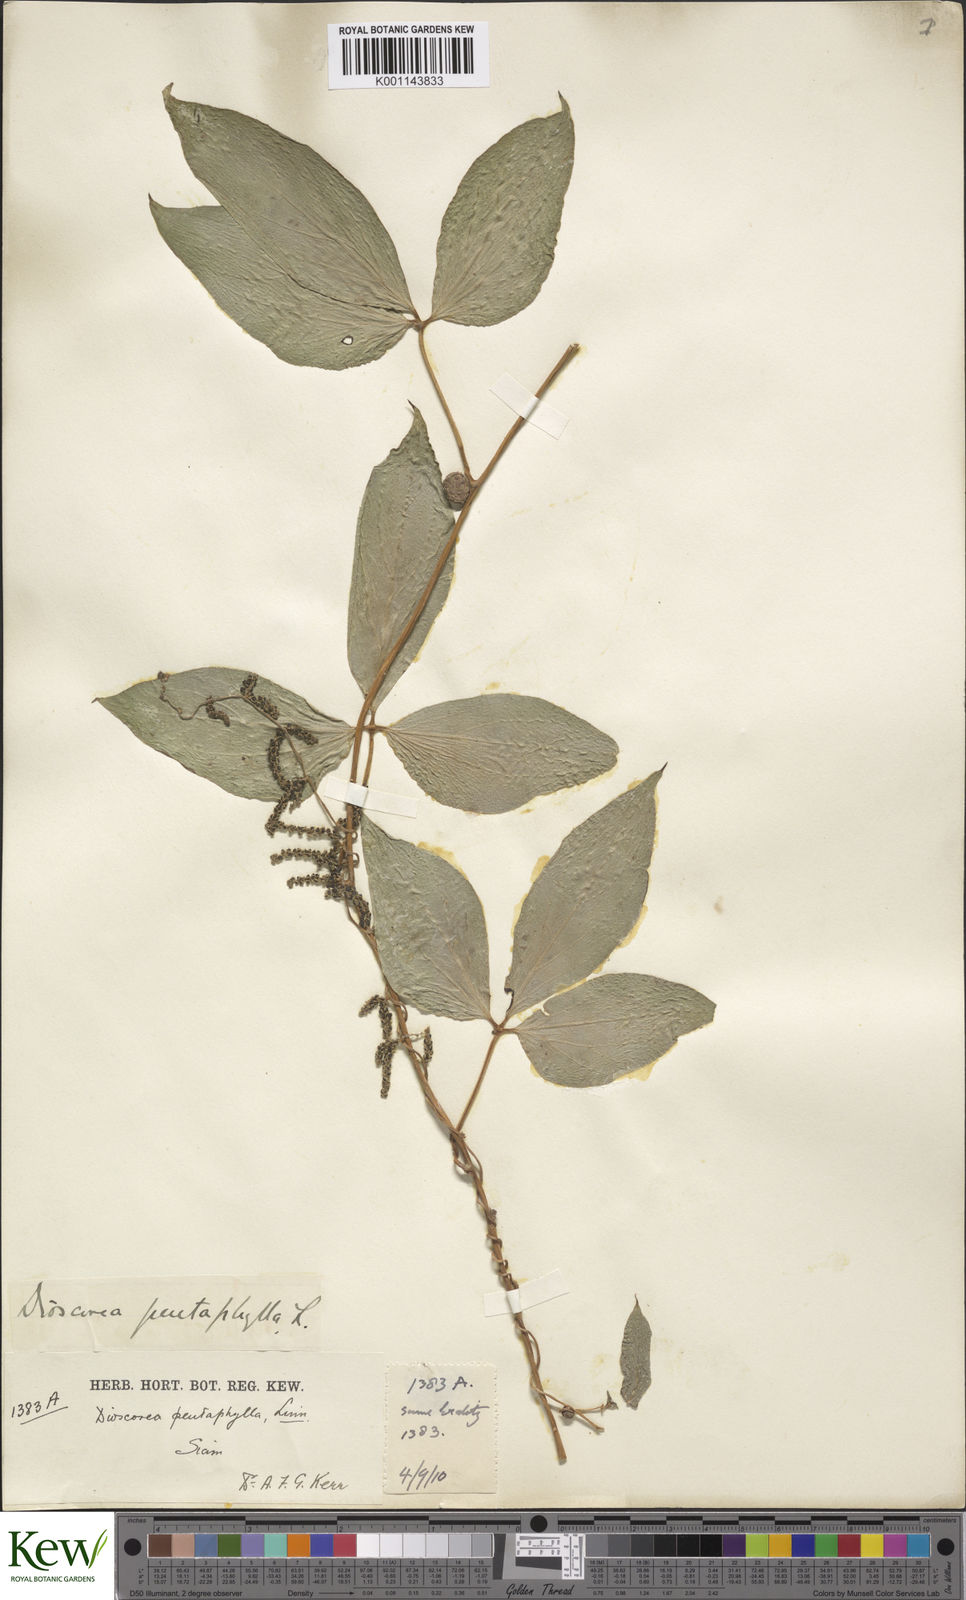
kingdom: Plantae
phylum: Tracheophyta
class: Liliopsida
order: Dioscoreales
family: Dioscoreaceae
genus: Dioscorea
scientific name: Dioscorea pentaphylla
